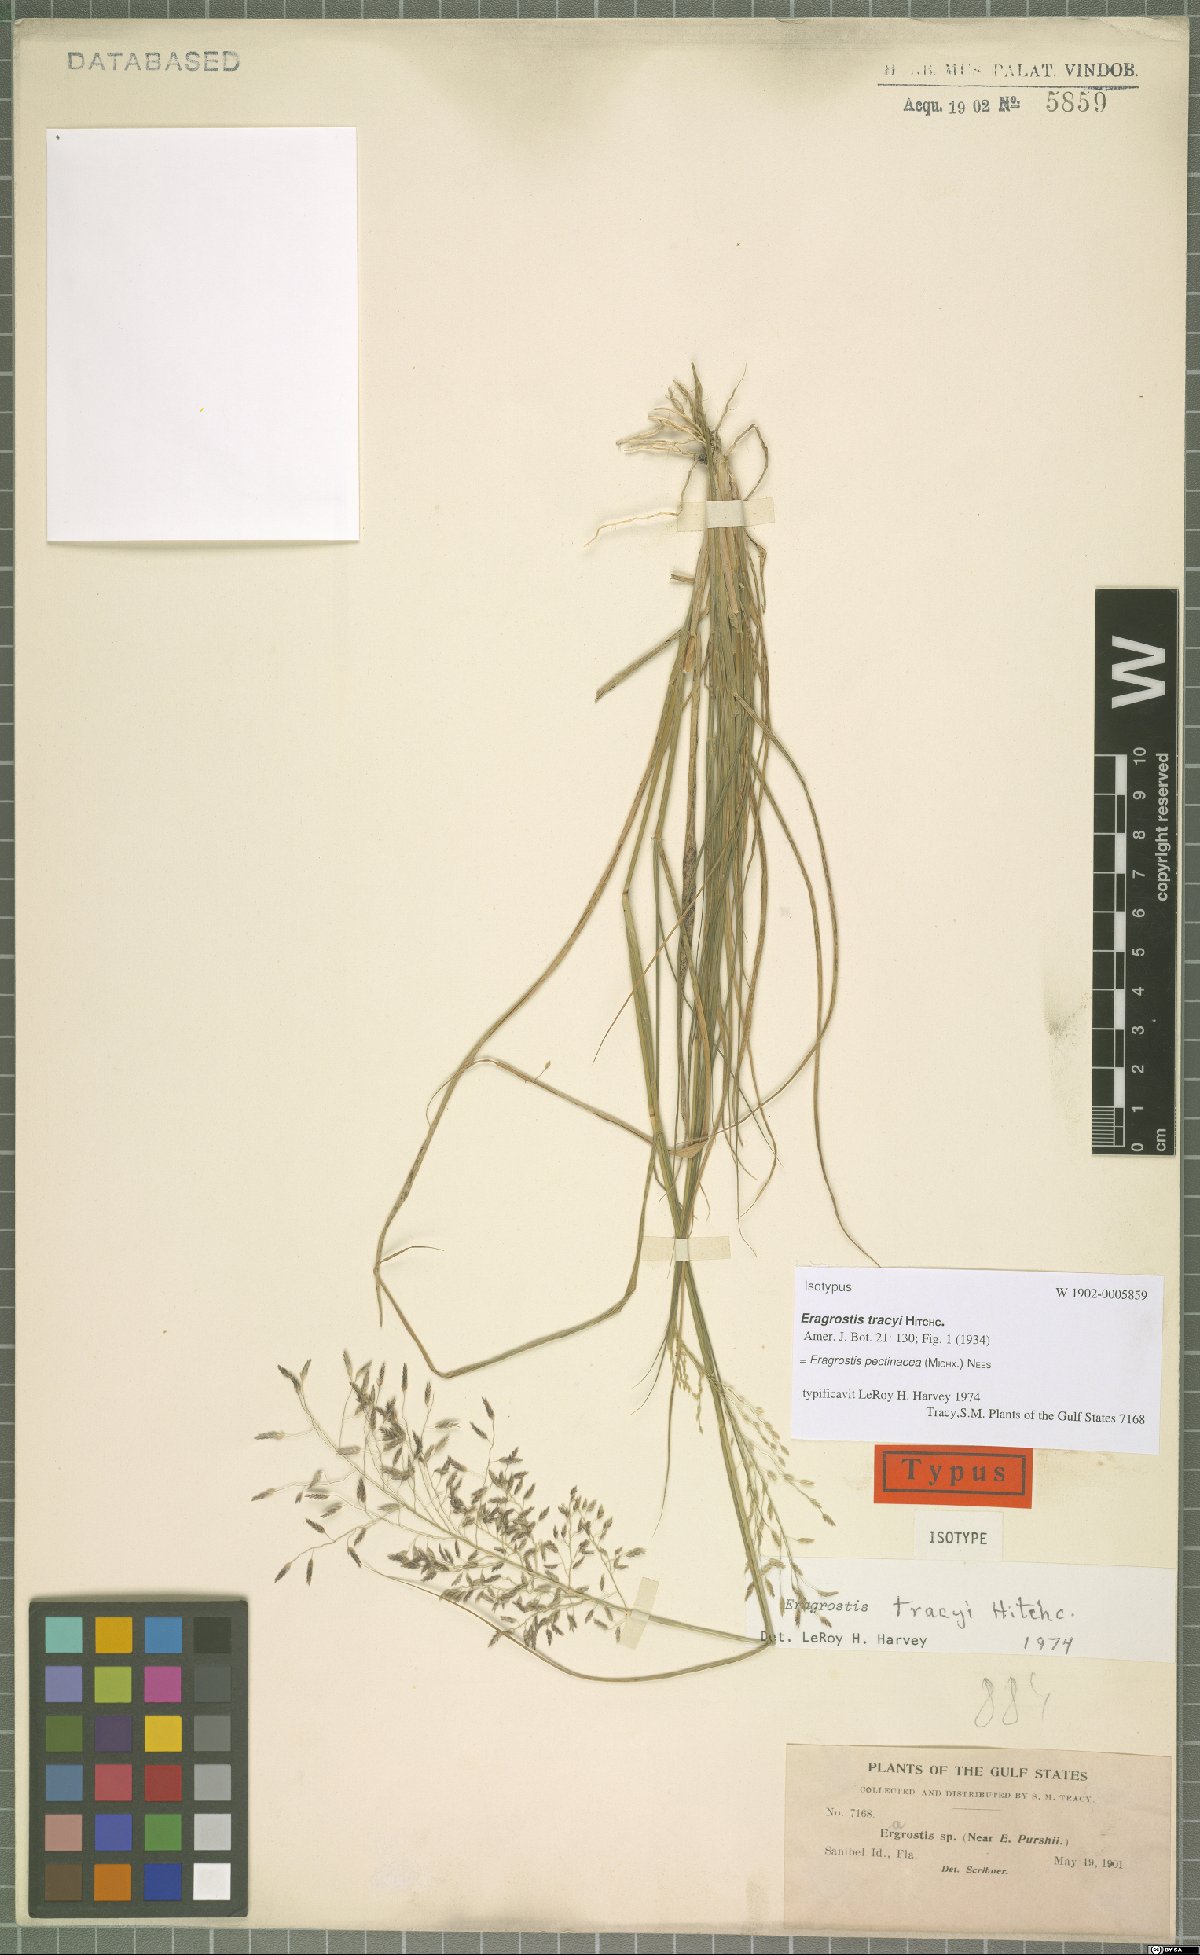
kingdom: Plantae
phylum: Tracheophyta
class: Liliopsida
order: Poales
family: Poaceae
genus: Eragrostis
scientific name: Eragrostis pectinacea
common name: Tufted lovegrass
